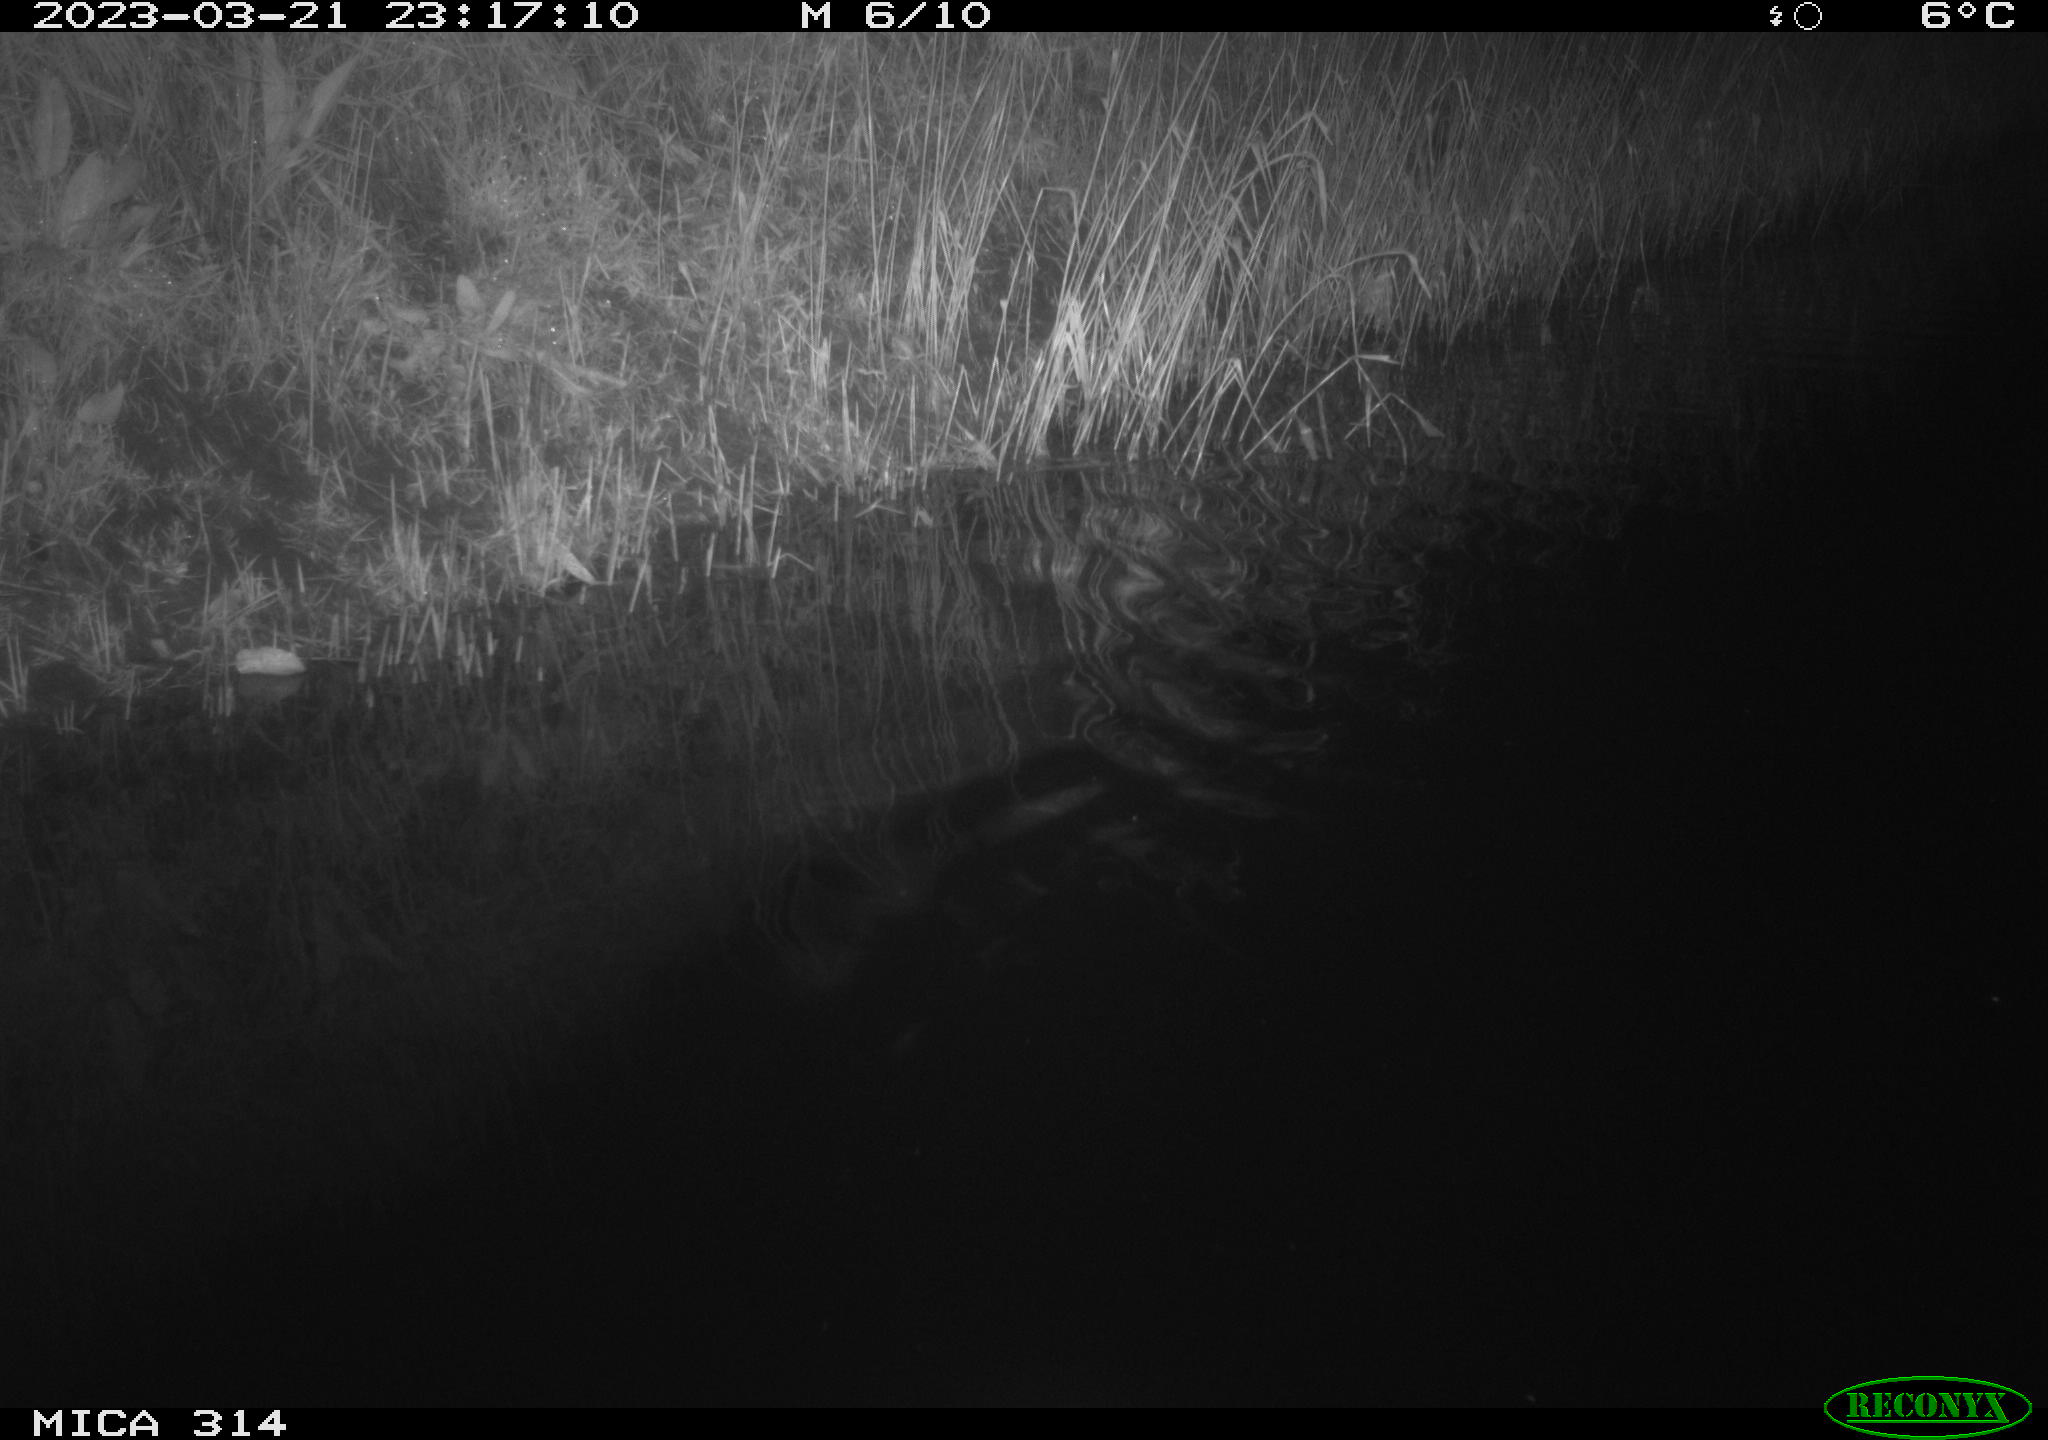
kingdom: Animalia
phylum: Chordata
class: Aves
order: Gruiformes
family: Rallidae
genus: Gallinula
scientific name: Gallinula chloropus
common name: Common moorhen
